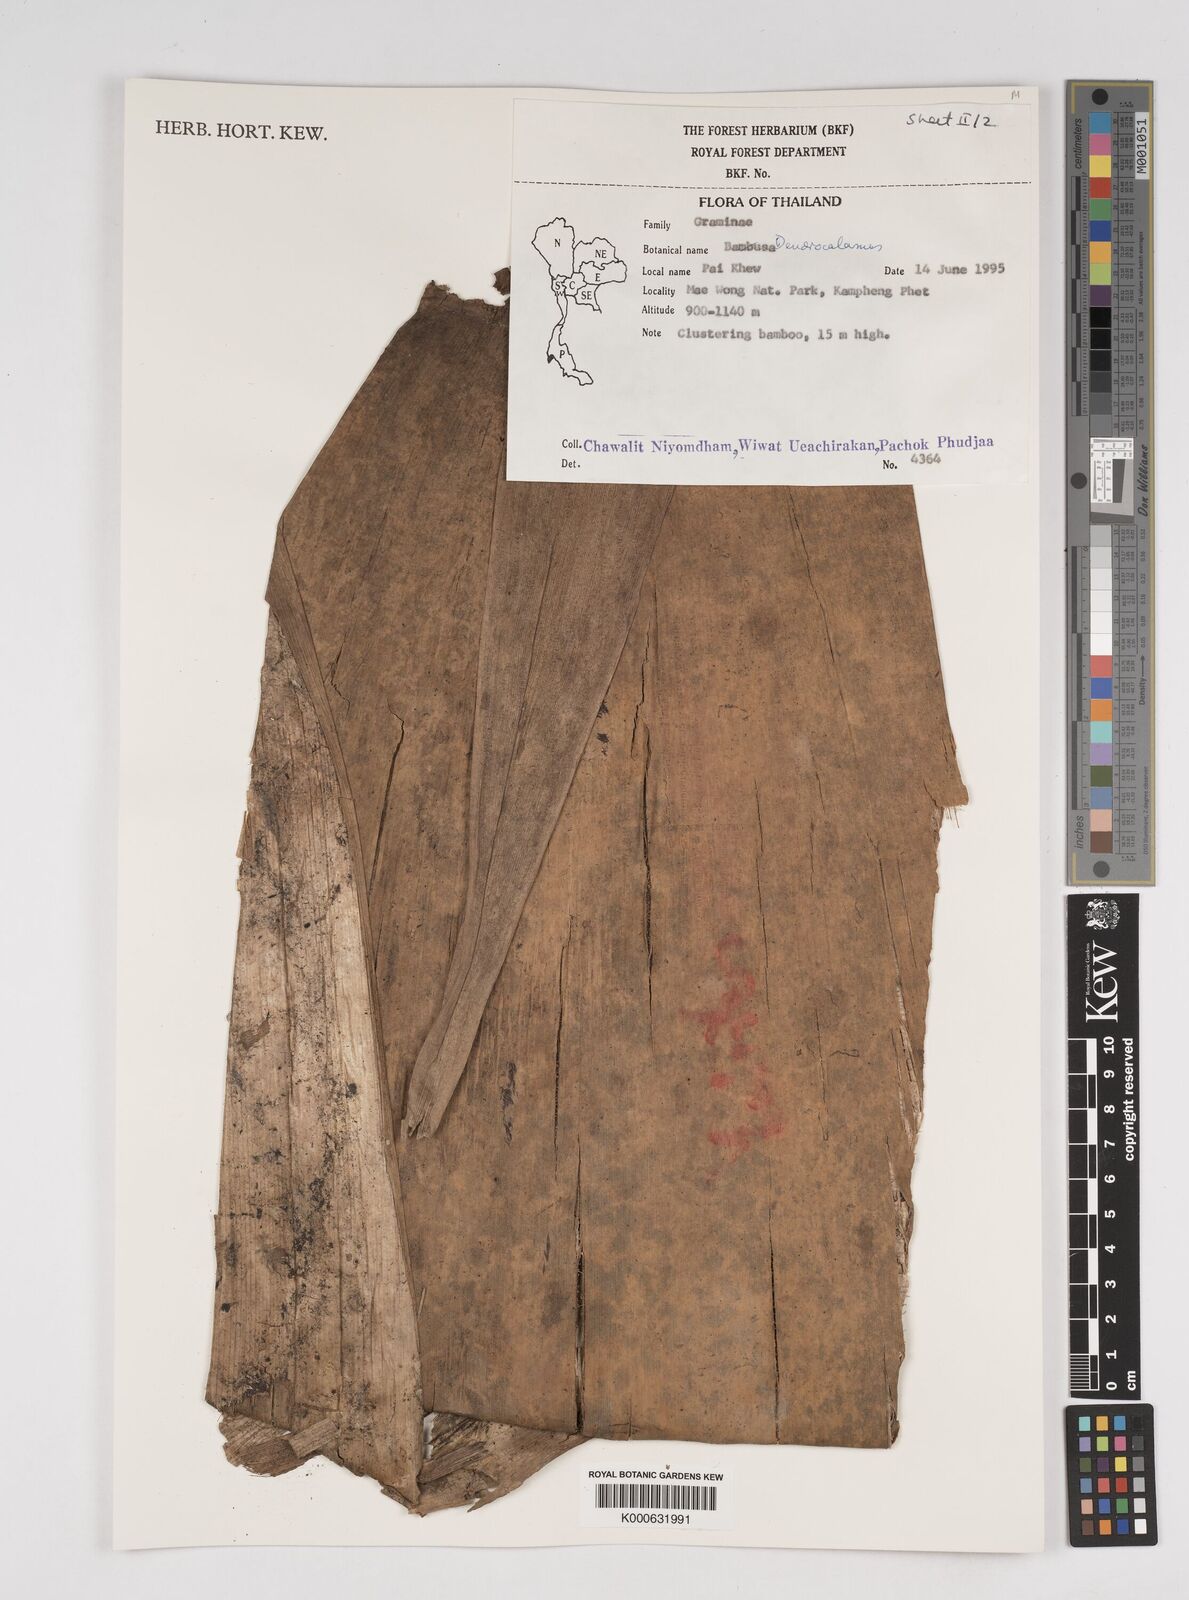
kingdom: Plantae
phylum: Tracheophyta
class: Liliopsida
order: Poales
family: Poaceae
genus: Dendrocalamus
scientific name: Dendrocalamus
